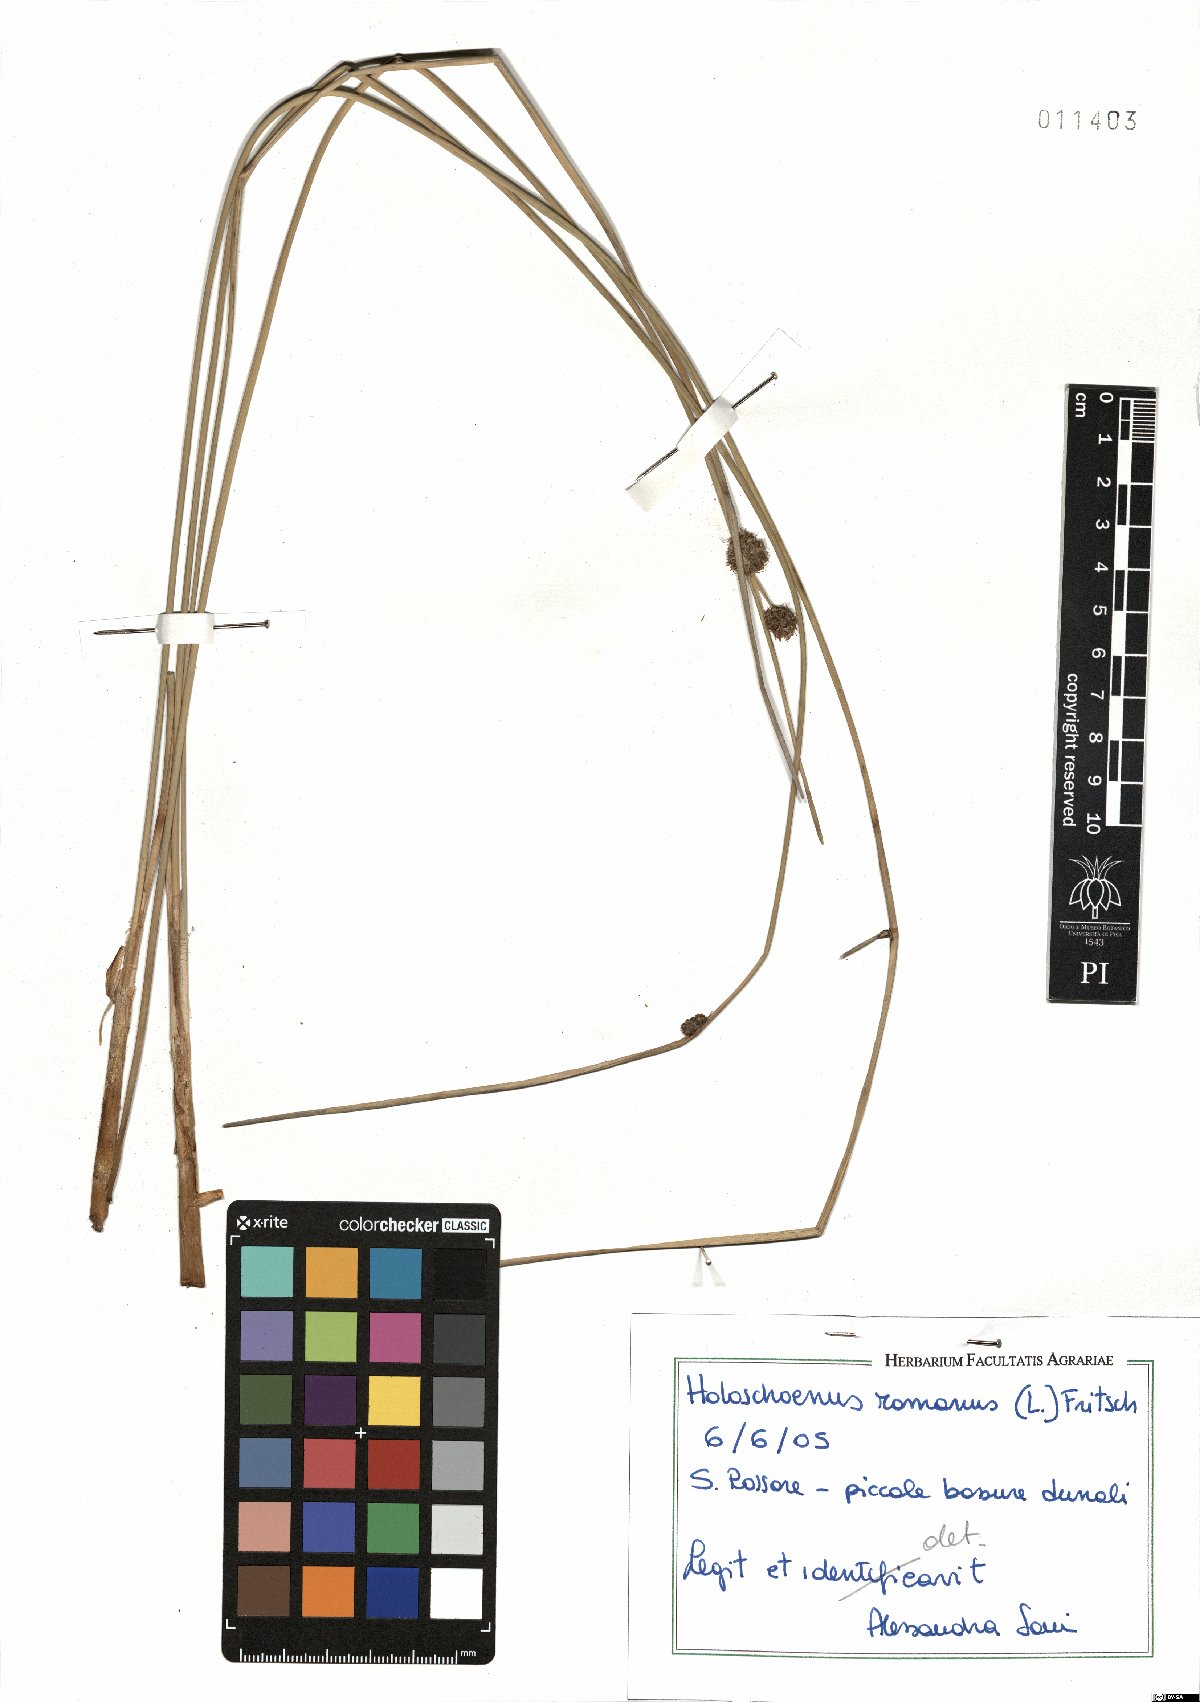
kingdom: Plantae
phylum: Tracheophyta
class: Liliopsida
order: Poales
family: Cyperaceae
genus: Scirpoides
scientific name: Scirpoides holoschoenus
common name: Round-headed club-rush
